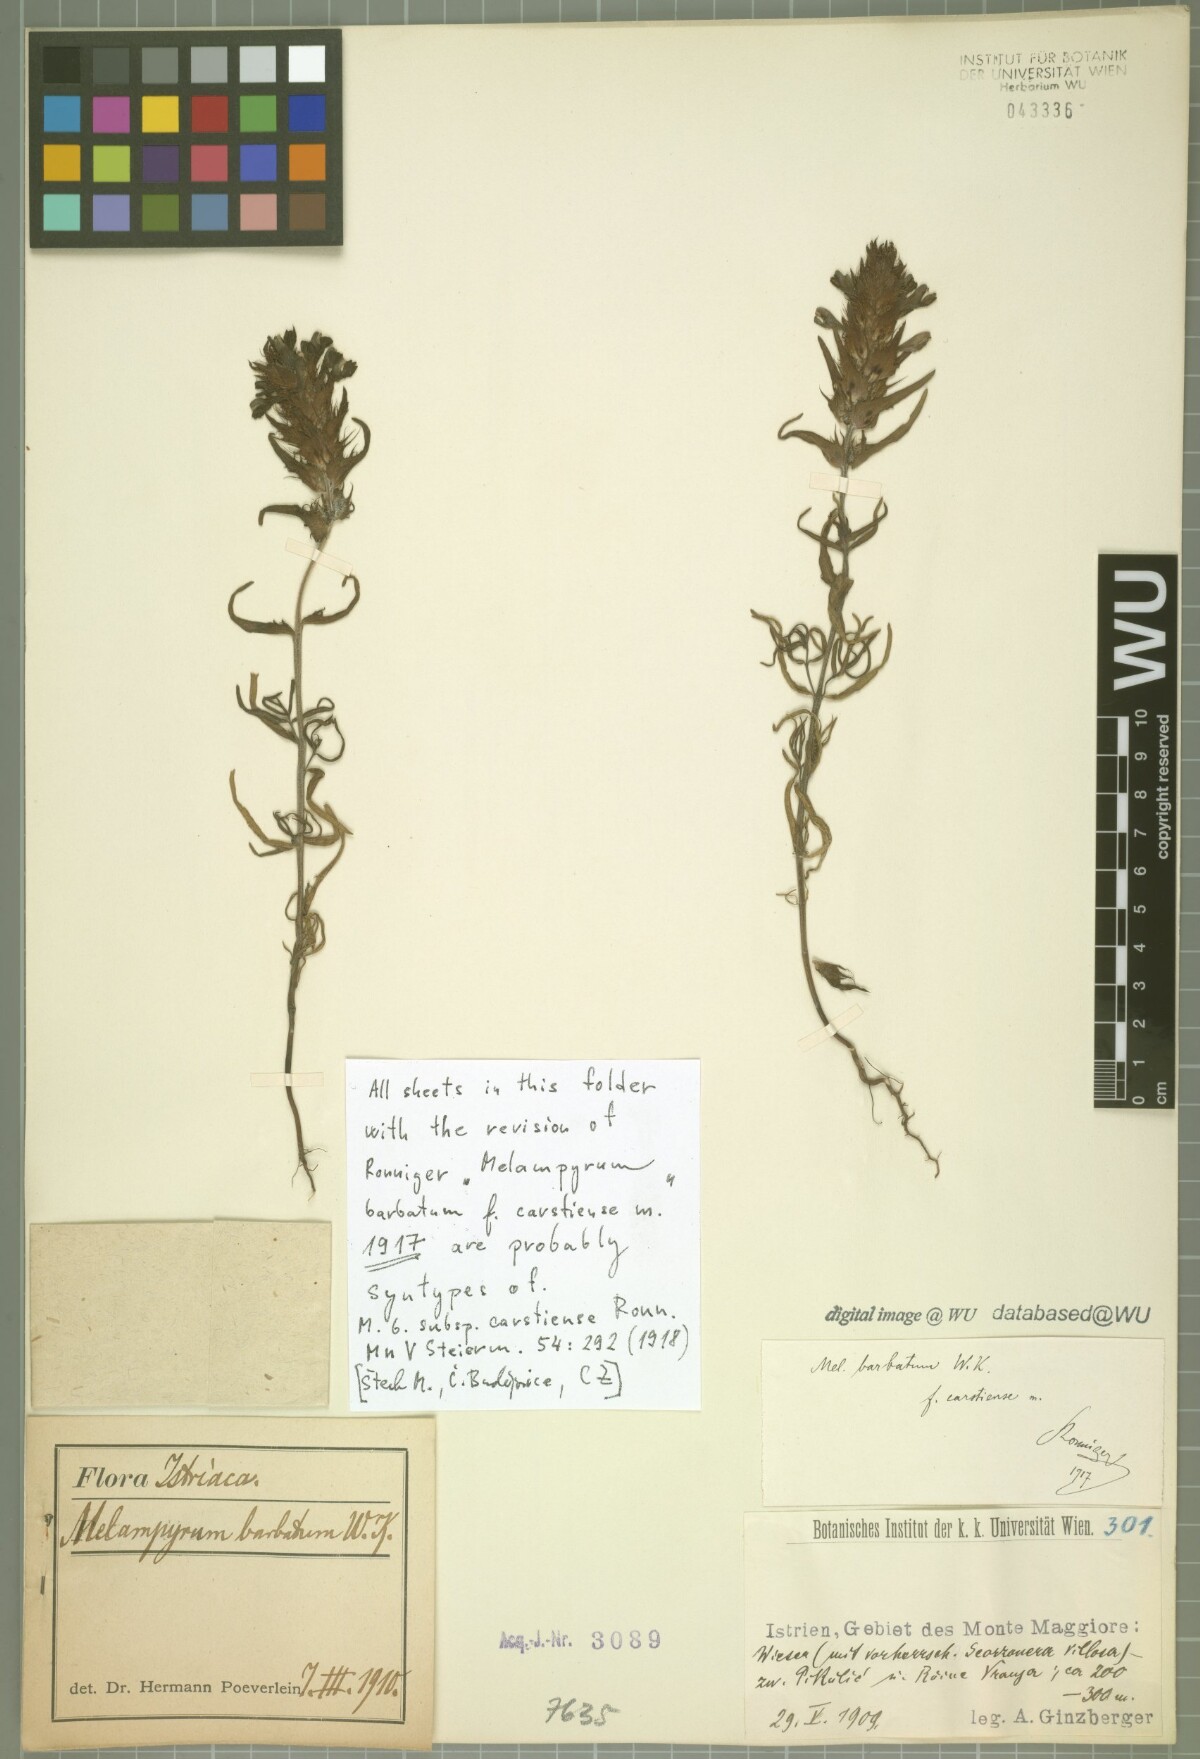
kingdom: Plantae
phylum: Tracheophyta
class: Magnoliopsida
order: Lamiales
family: Orobanchaceae
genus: Melampyrum
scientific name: Melampyrum barbatum
